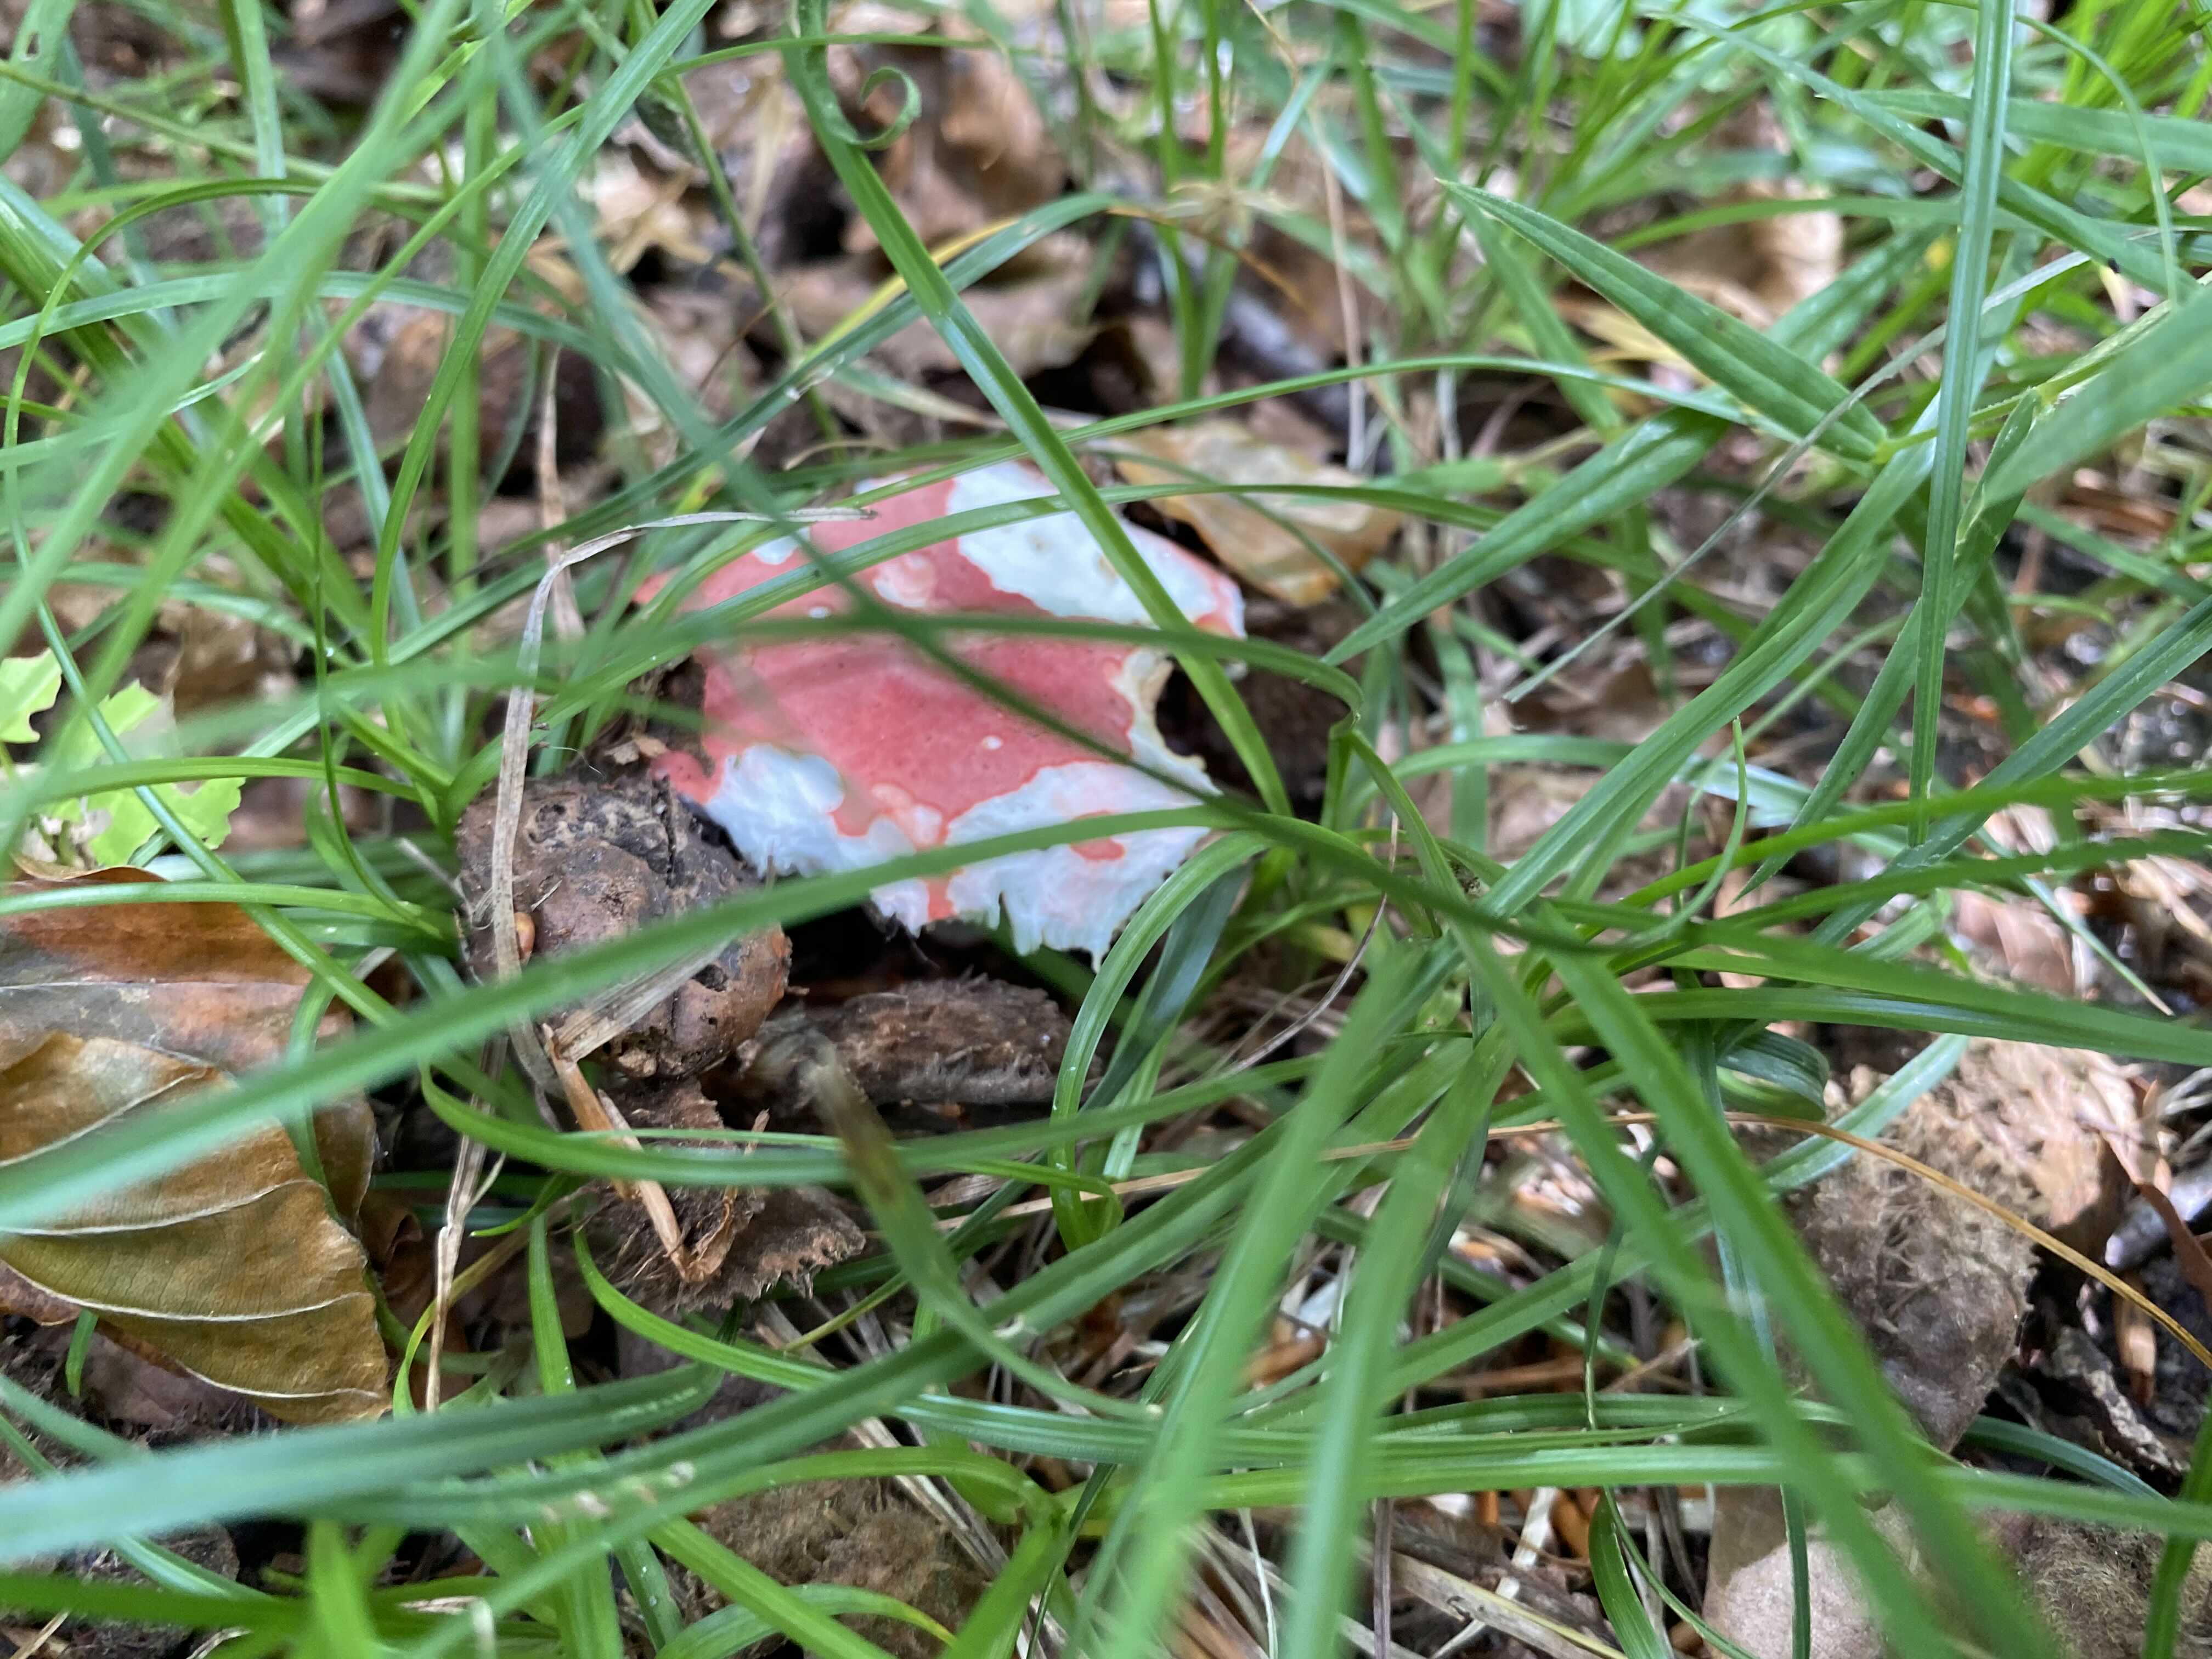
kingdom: Fungi
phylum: Basidiomycota
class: Agaricomycetes
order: Russulales
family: Russulaceae
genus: Russula
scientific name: Russula nobilis
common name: lille gift-skørhat
